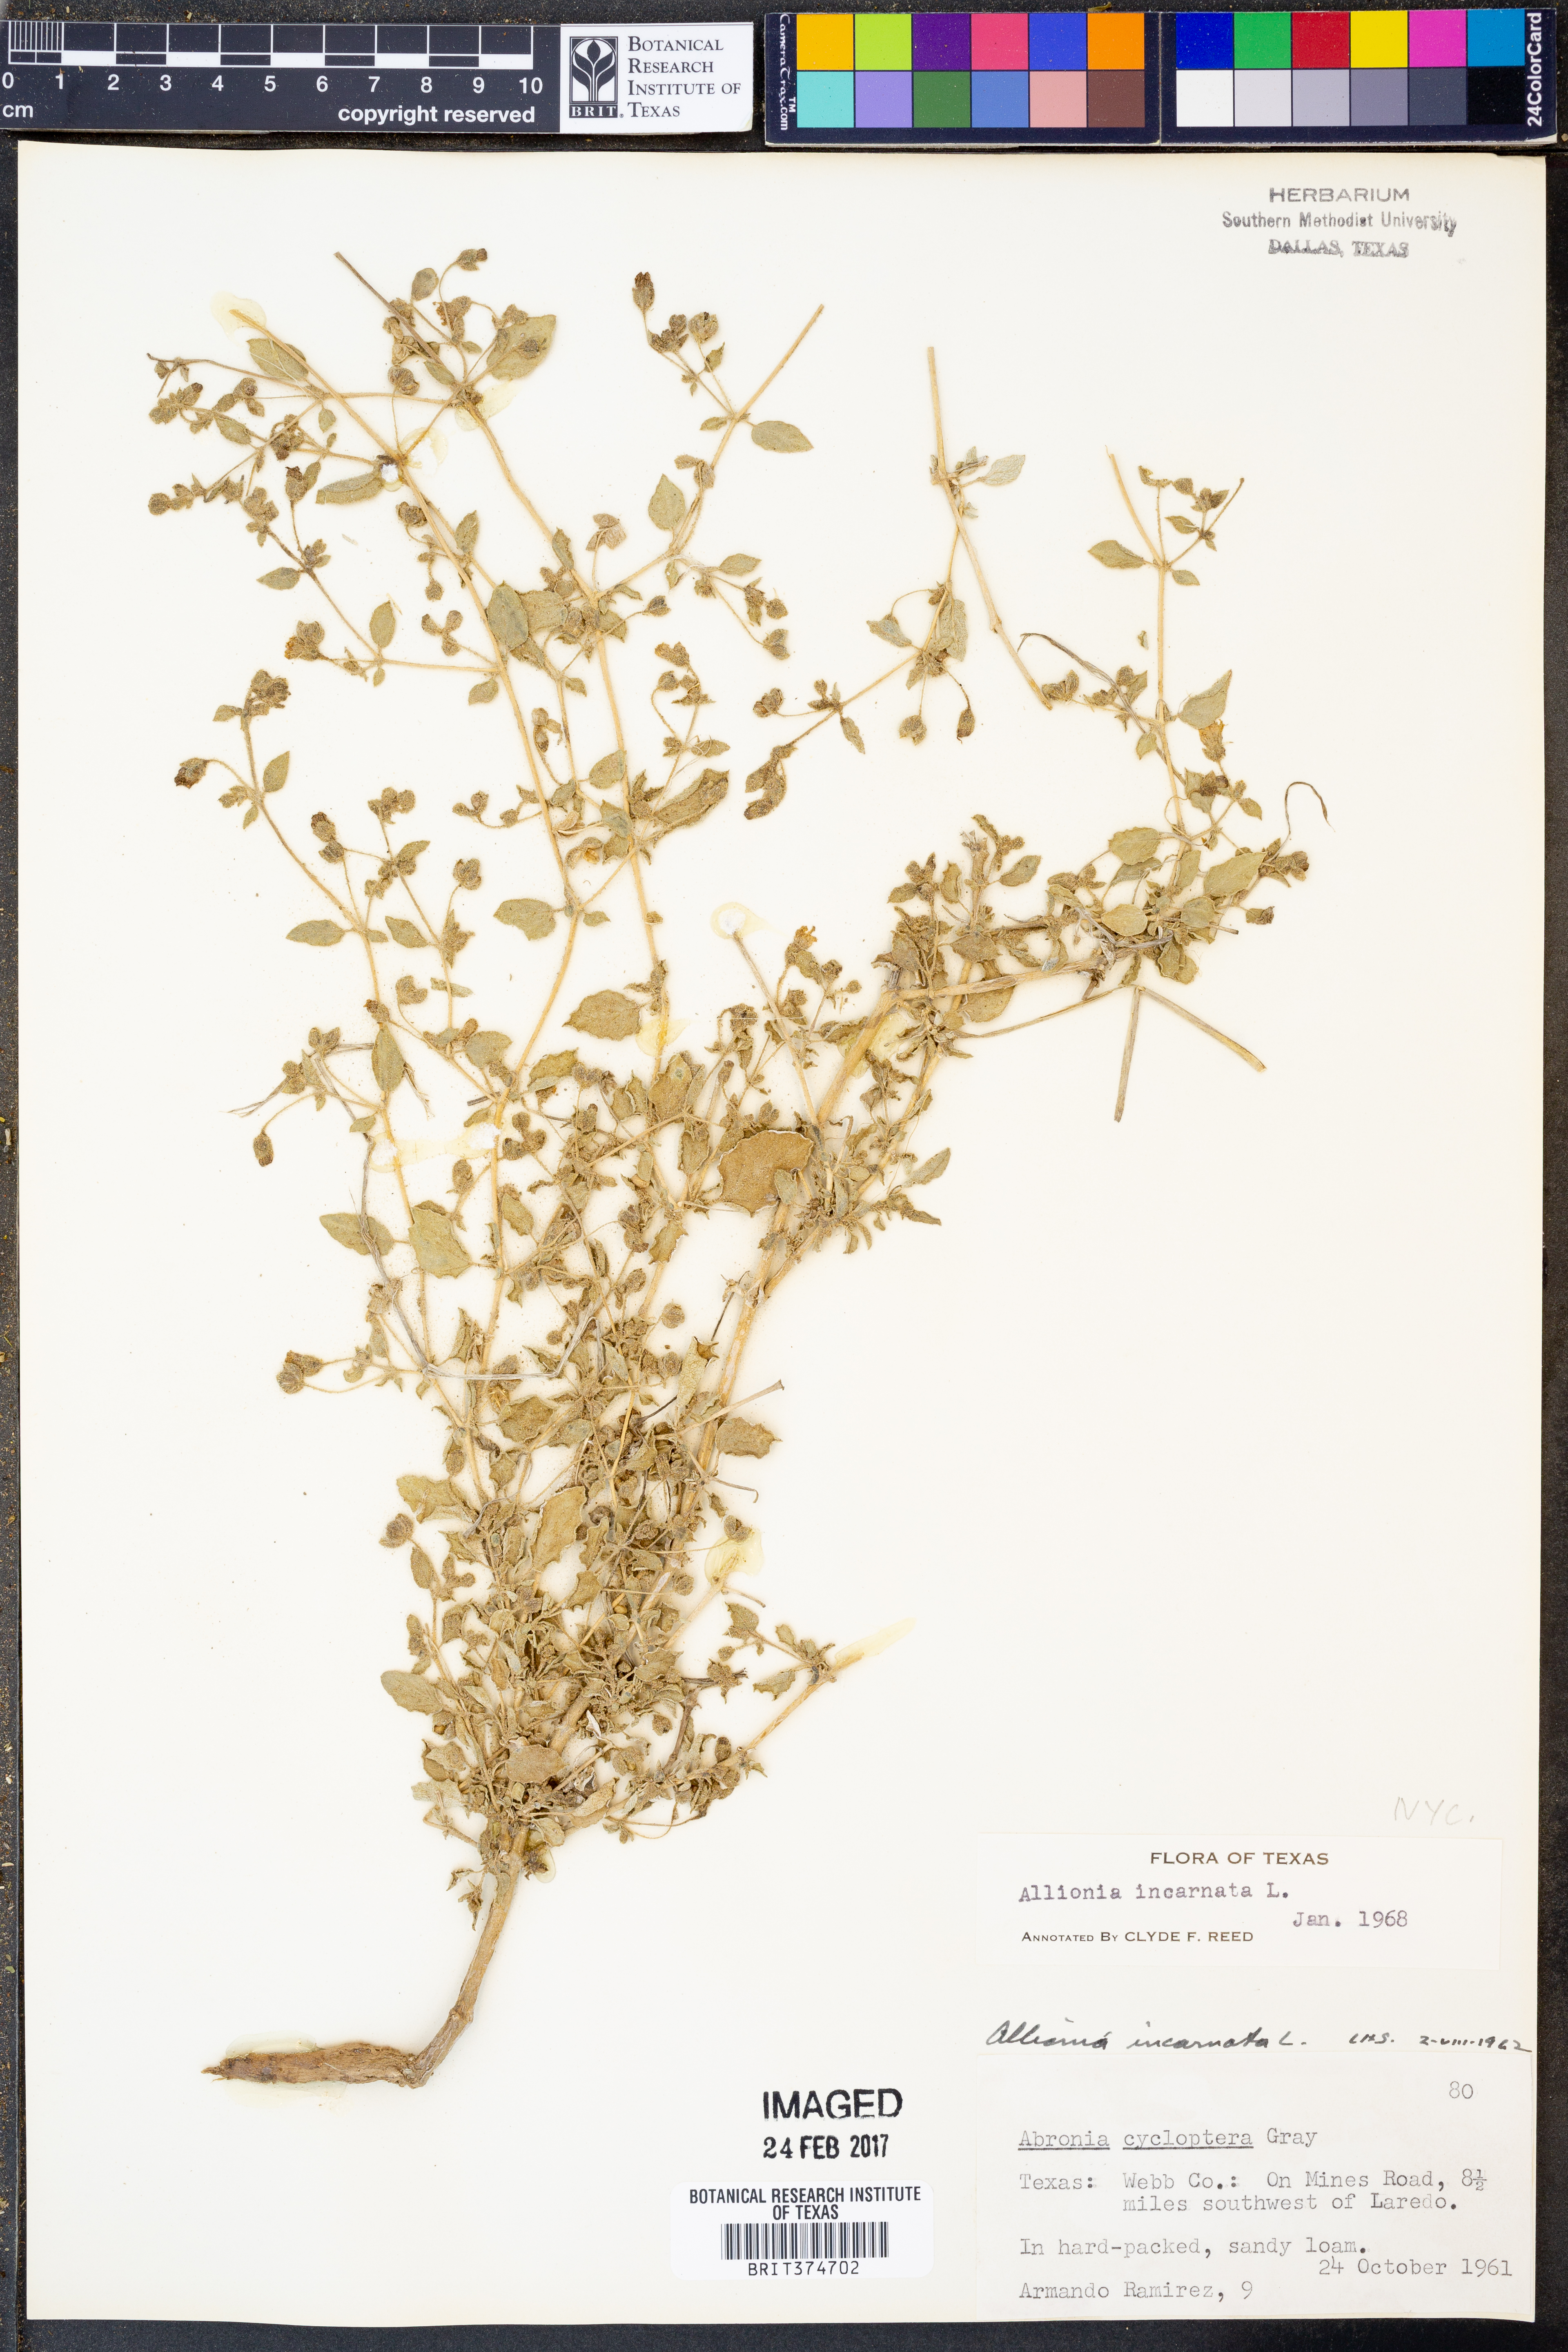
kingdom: Plantae
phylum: Tracheophyta
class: Magnoliopsida
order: Caryophyllales
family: Nyctaginaceae
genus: Allionia
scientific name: Allionia incarnata
